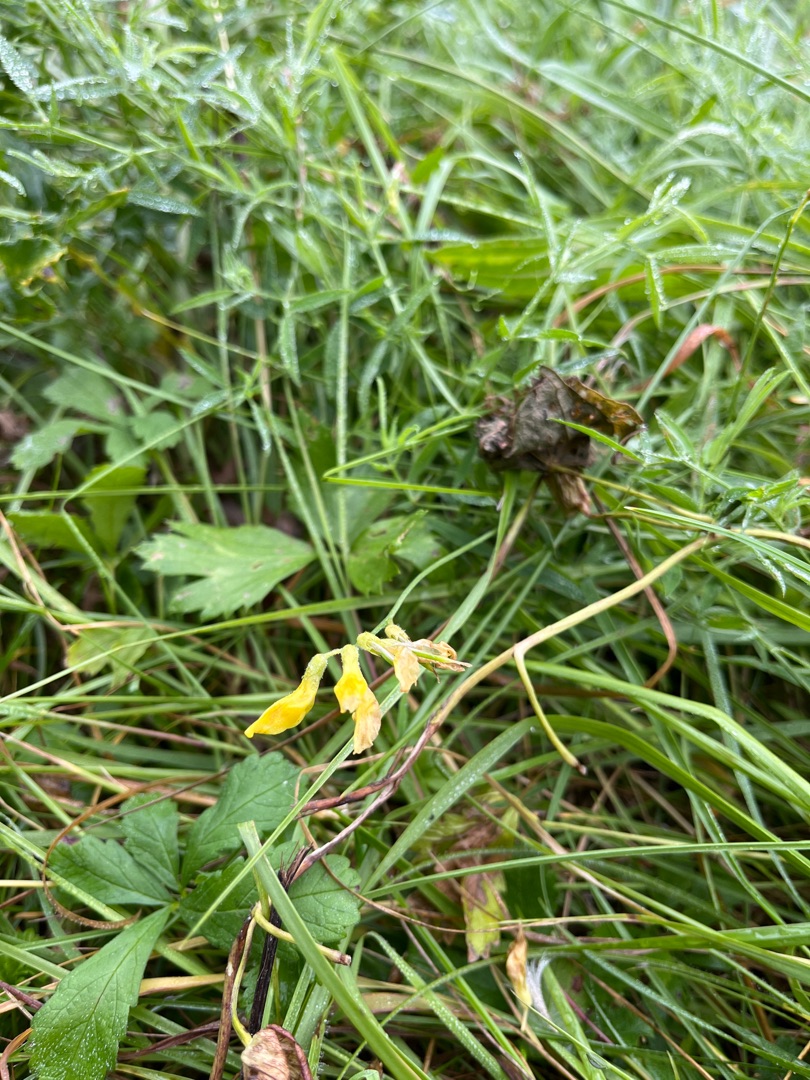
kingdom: Plantae
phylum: Tracheophyta
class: Magnoliopsida
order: Fabales
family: Fabaceae
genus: Lathyrus
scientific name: Lathyrus pratensis
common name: Gul fladbælg
